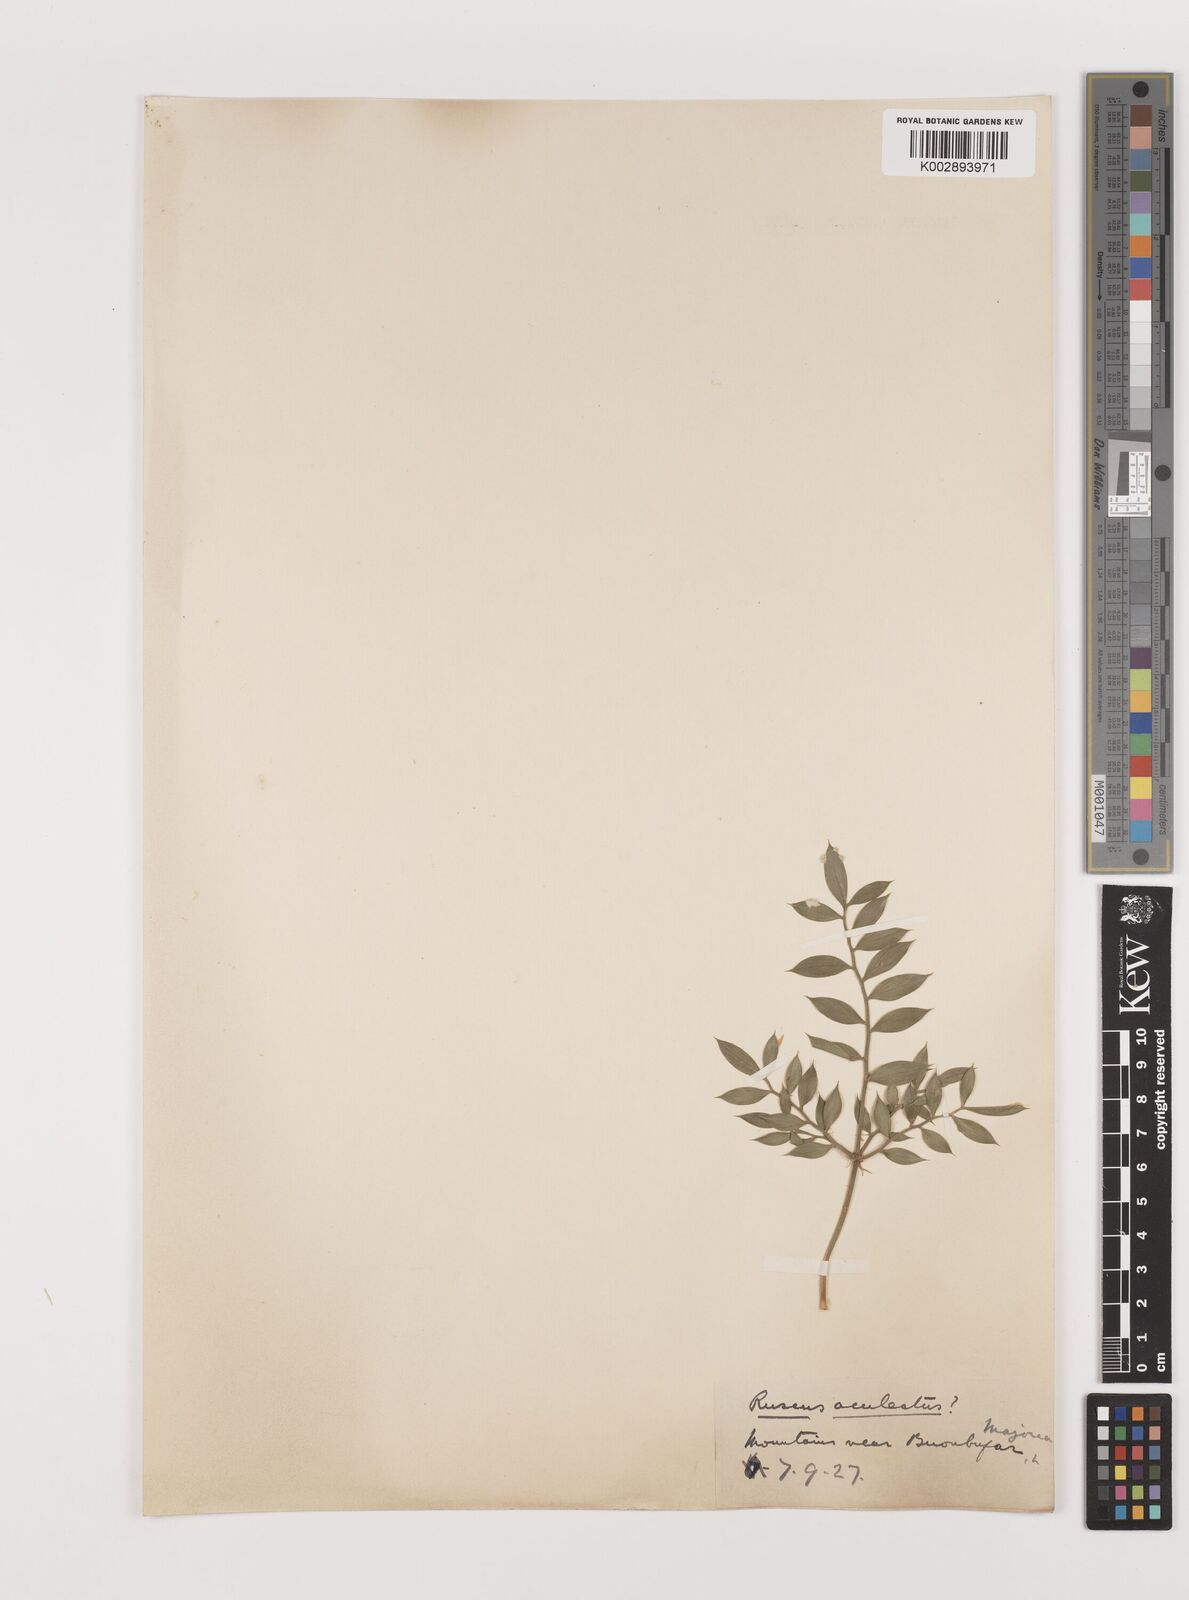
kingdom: Plantae
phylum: Tracheophyta
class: Liliopsida
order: Asparagales
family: Asparagaceae
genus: Ruscus
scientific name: Ruscus aculeatus
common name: Butcher's-broom
